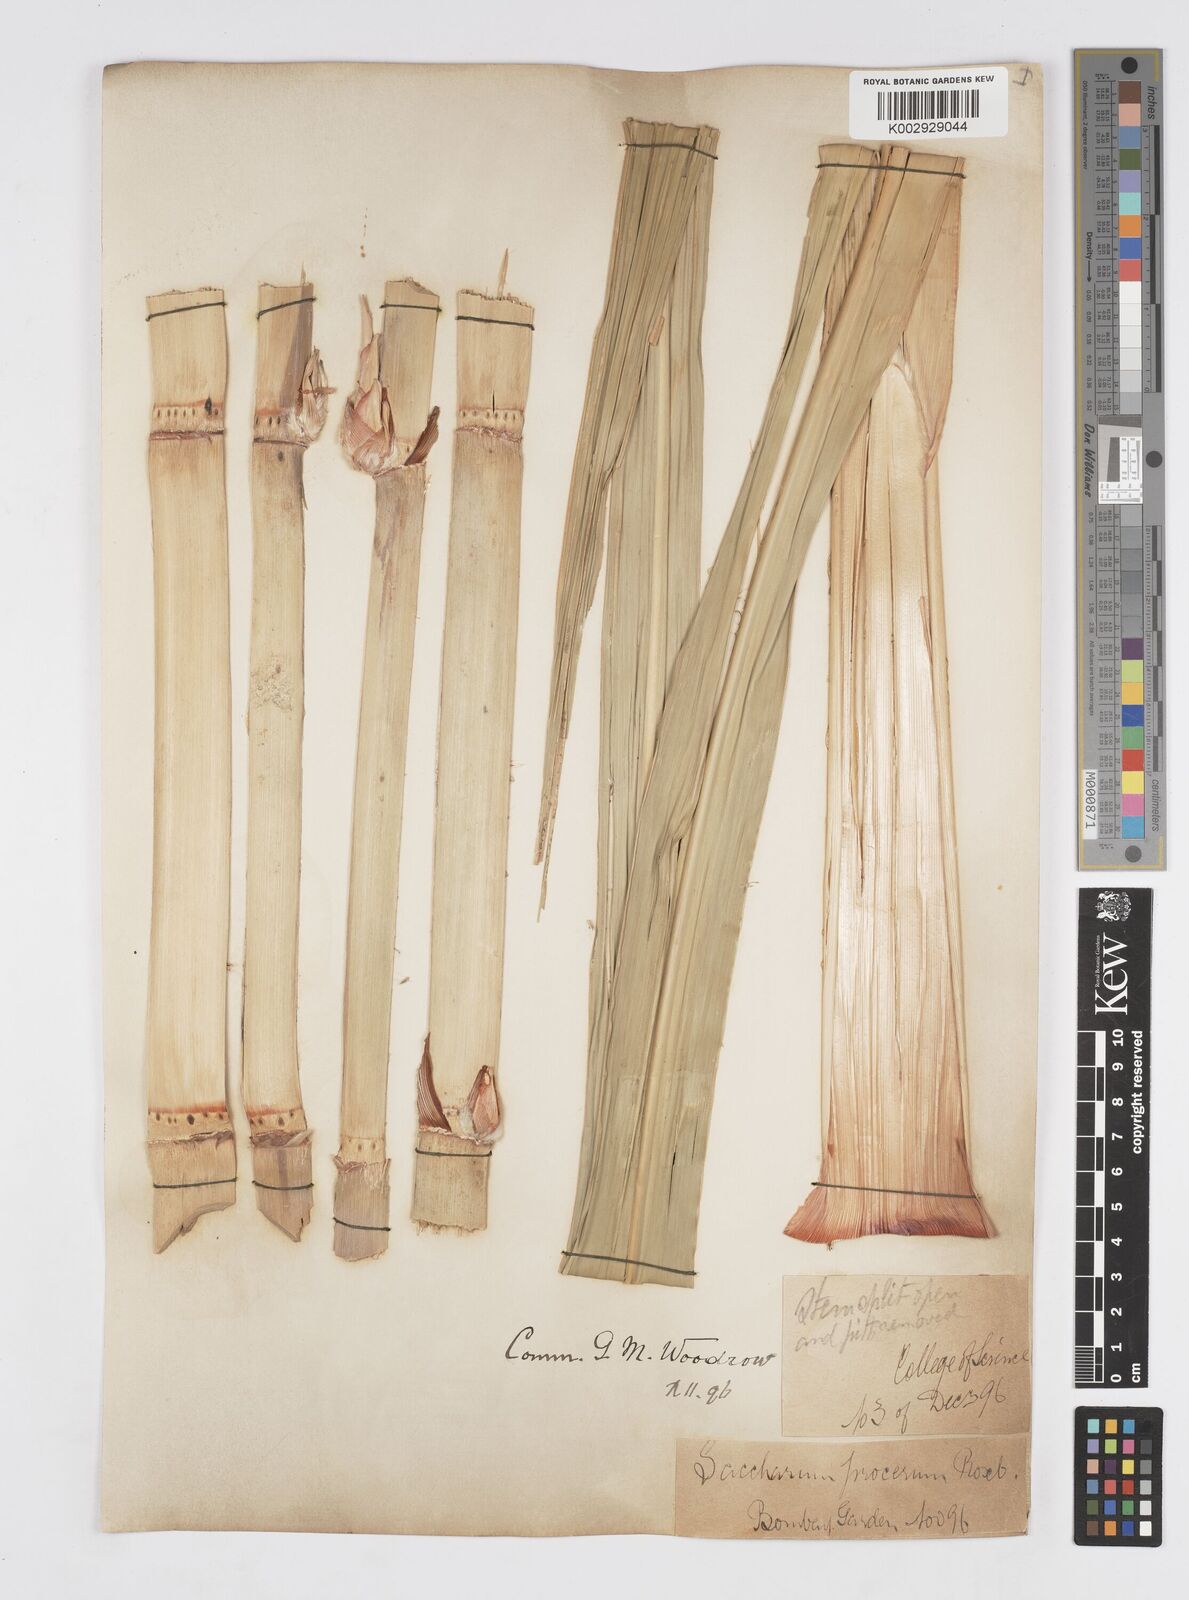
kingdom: Plantae
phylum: Tracheophyta
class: Liliopsida
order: Poales
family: Poaceae
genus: Tripidium
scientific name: Tripidium arundinaceum
